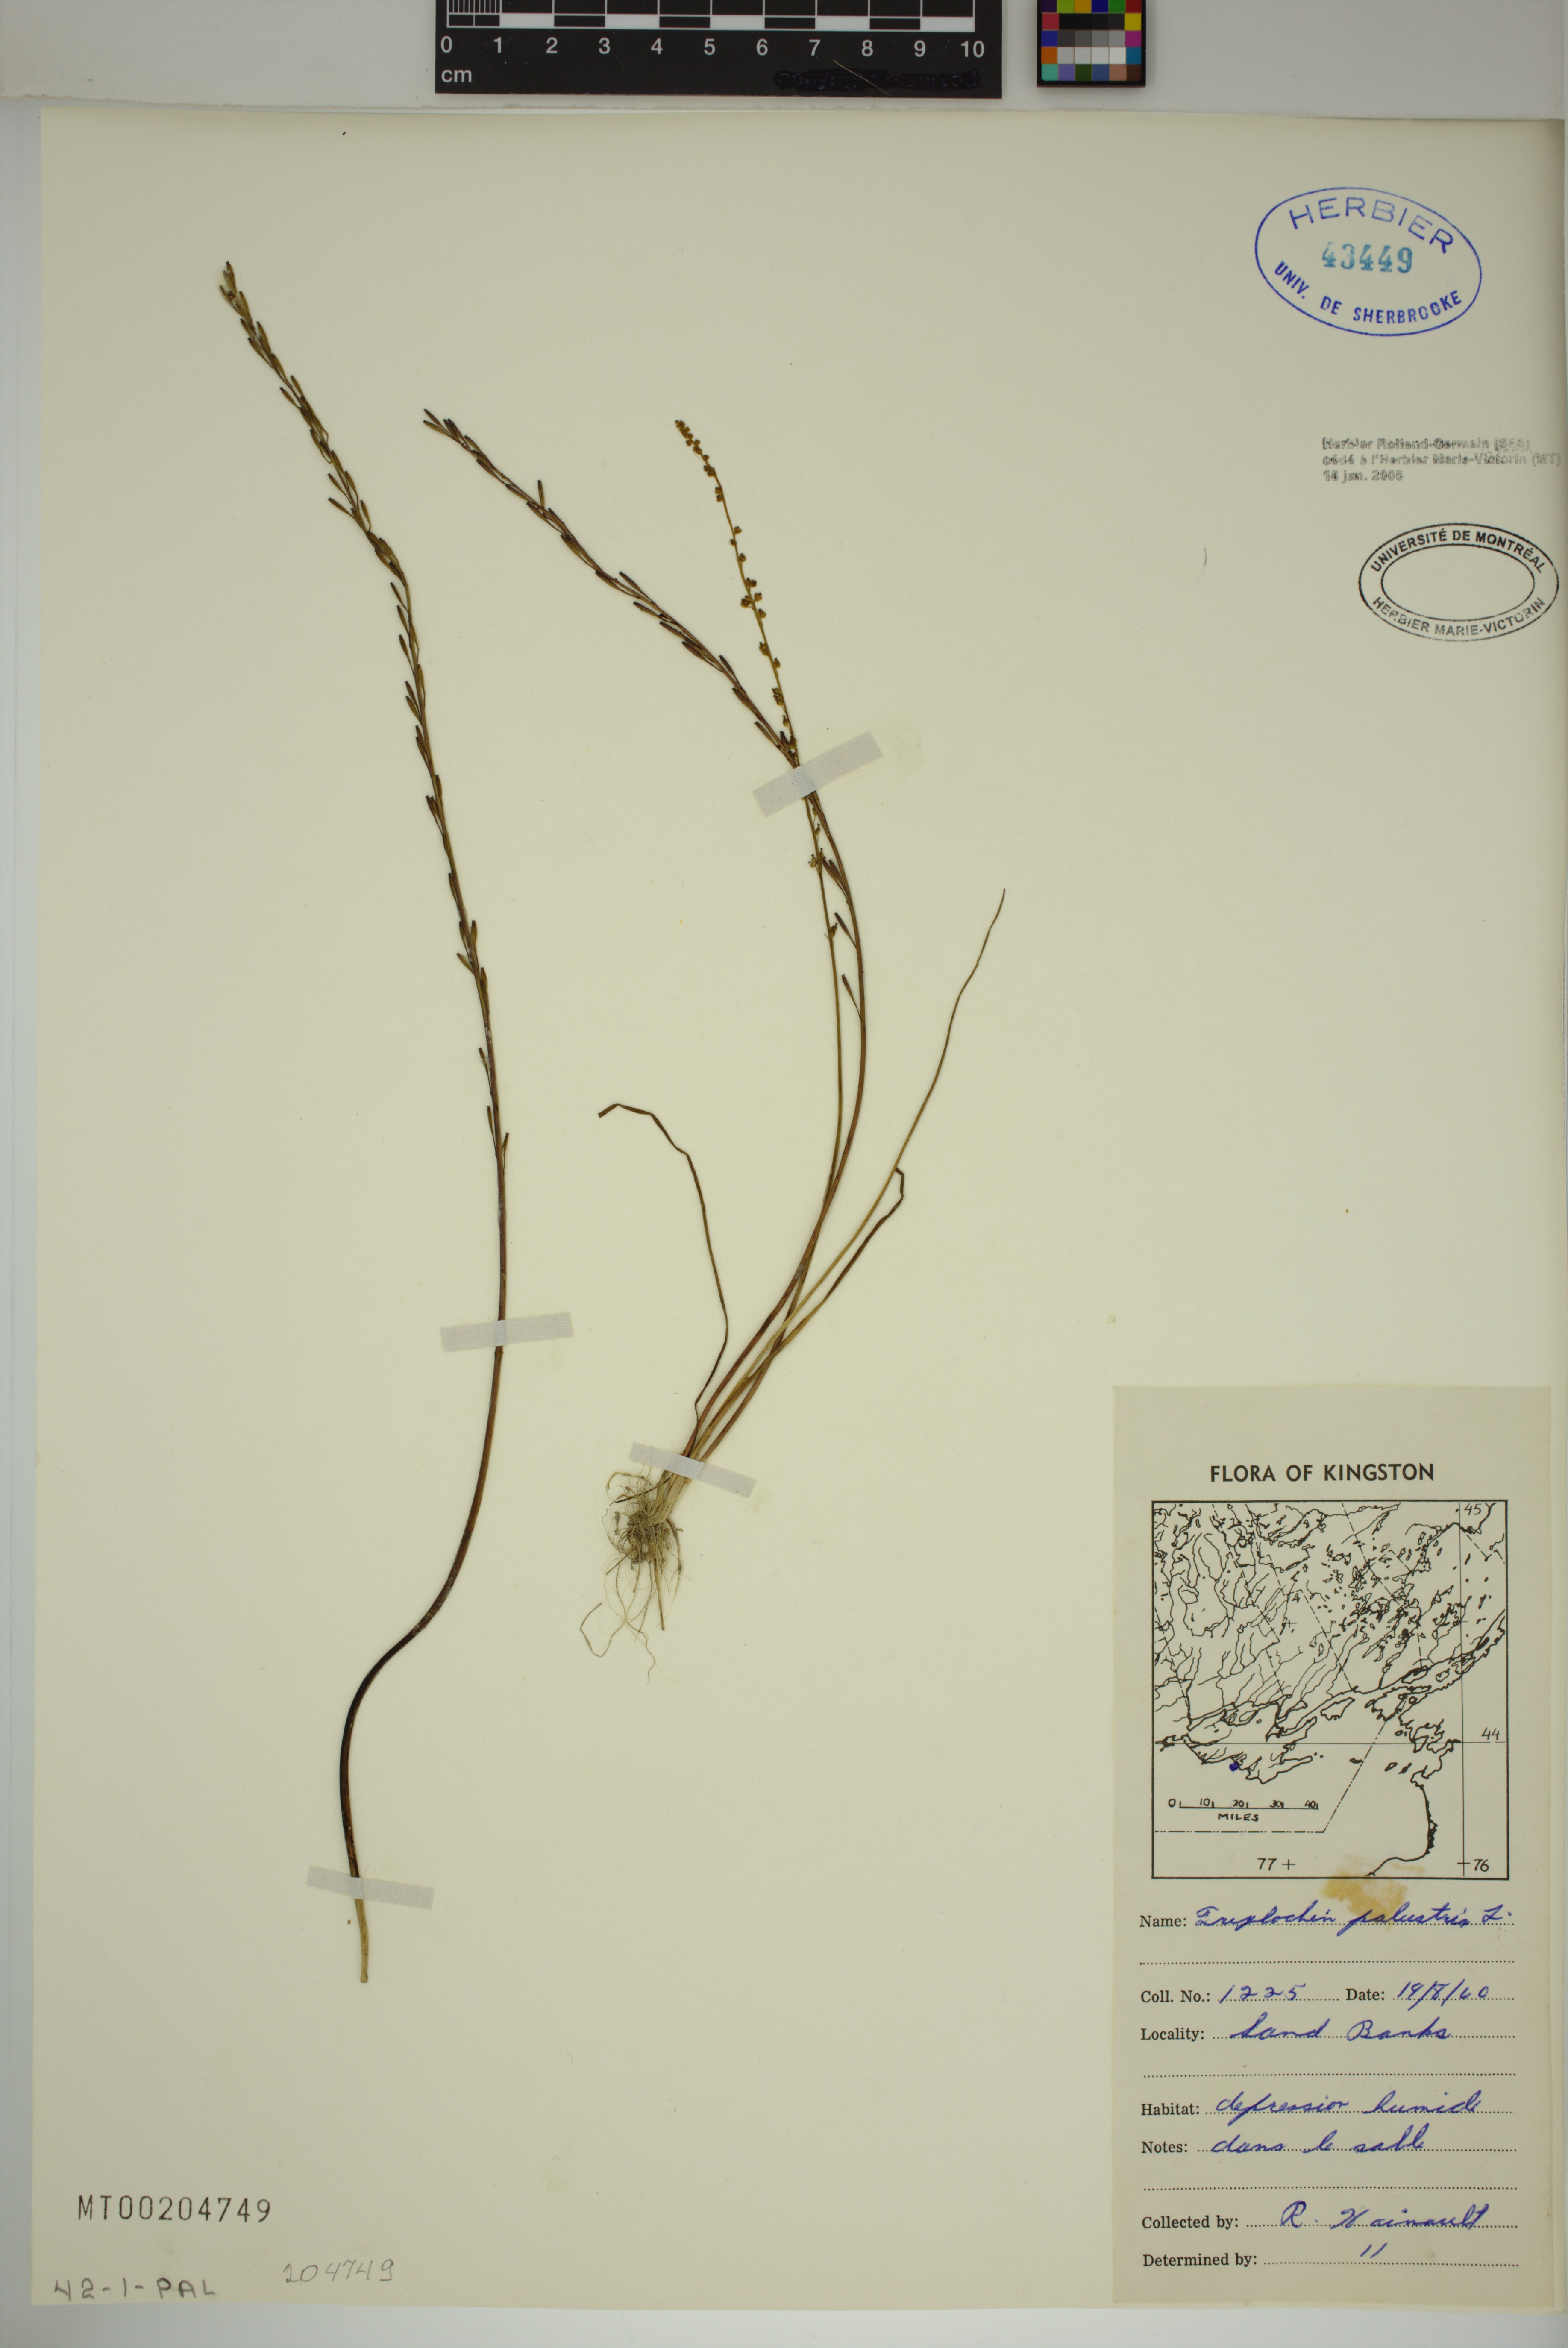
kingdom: Plantae
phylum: Tracheophyta
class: Liliopsida
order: Alismatales
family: Juncaginaceae
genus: Triglochin
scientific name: Triglochin palustris
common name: Marsh arrowgrass
